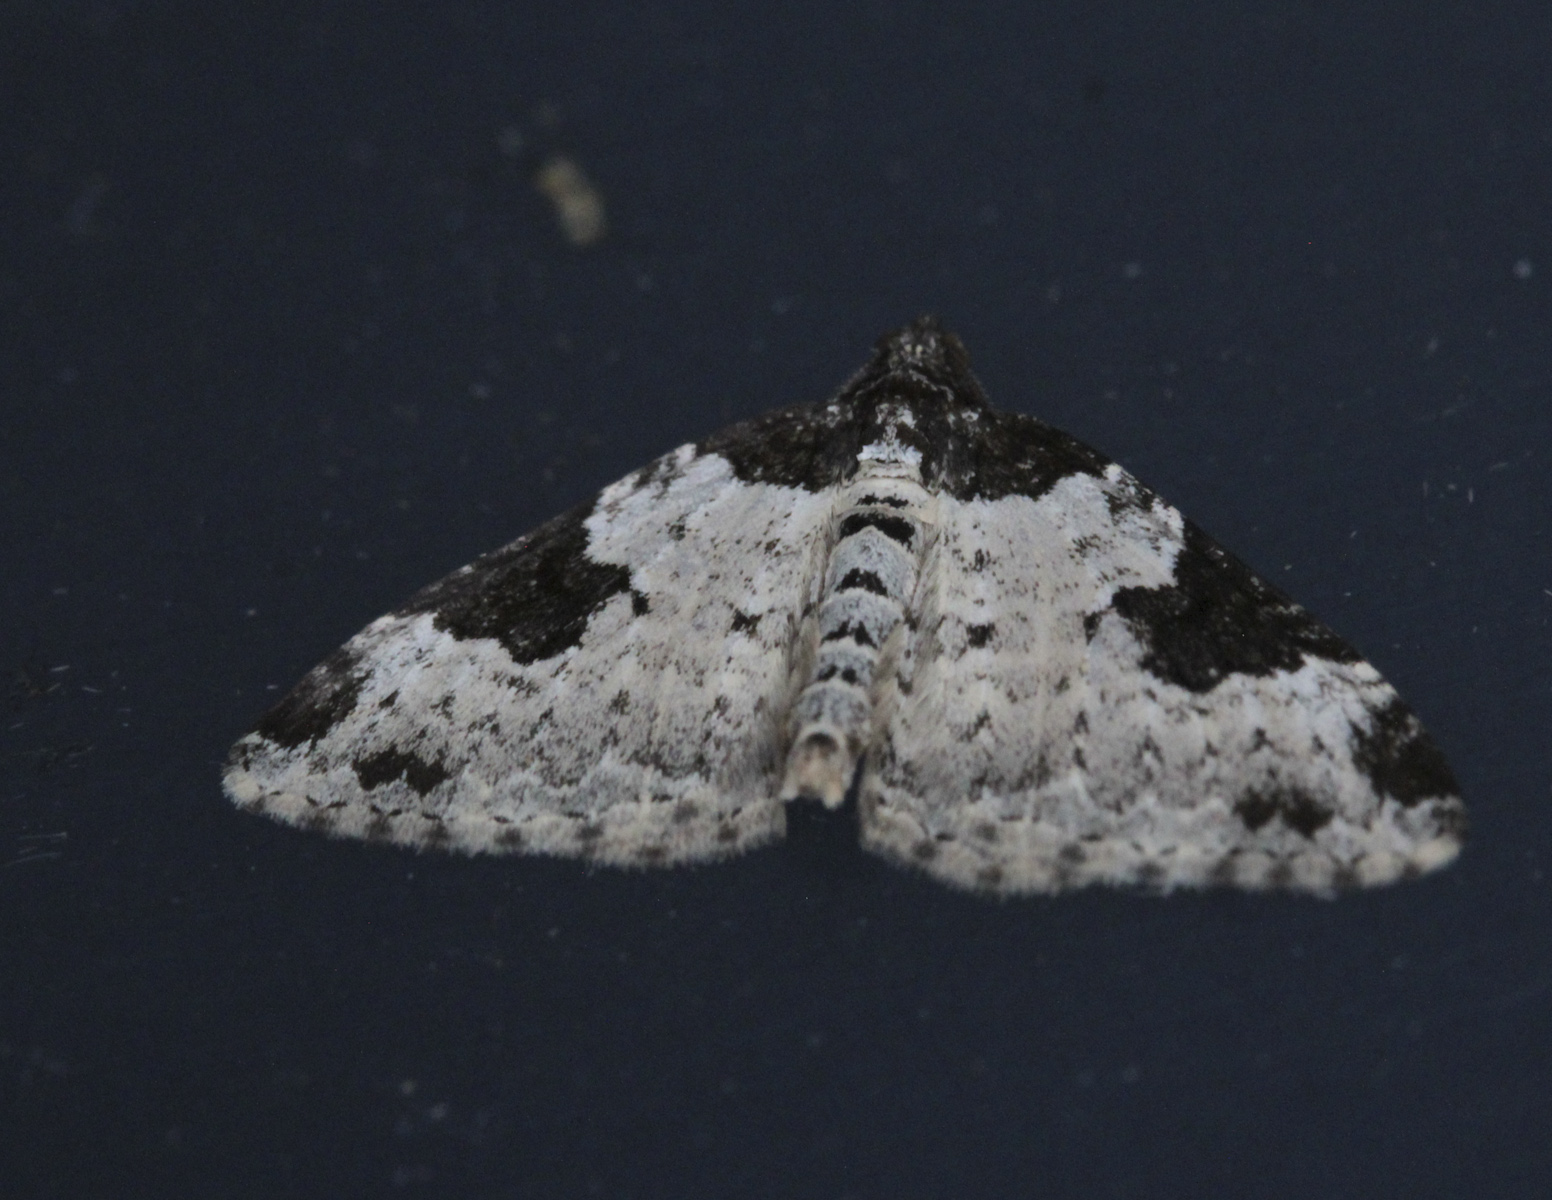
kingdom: Animalia
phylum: Arthropoda
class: Insecta
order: Lepidoptera
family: Geometridae
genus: Xanthorhoe
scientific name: Xanthorhoe fluctuata
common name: Garden carpet
